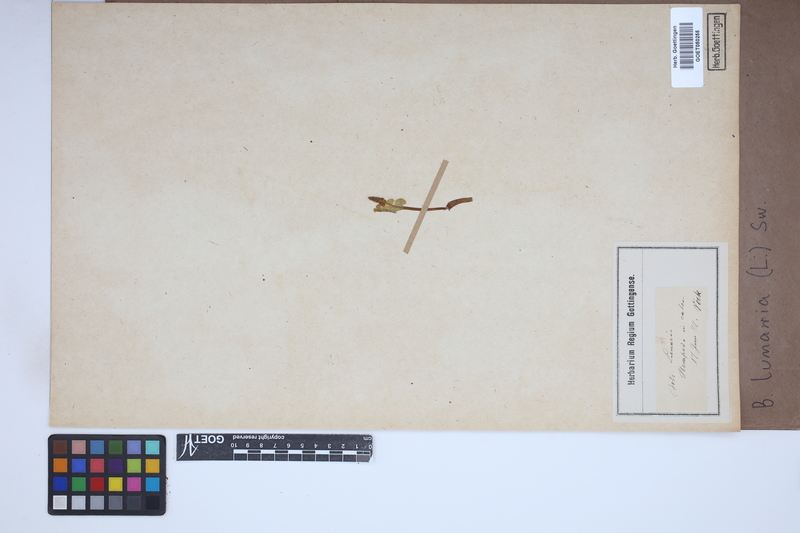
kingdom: Plantae
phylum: Tracheophyta
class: Polypodiopsida
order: Ophioglossales
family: Ophioglossaceae
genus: Botrychium
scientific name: Botrychium lunaria
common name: Moonwort
